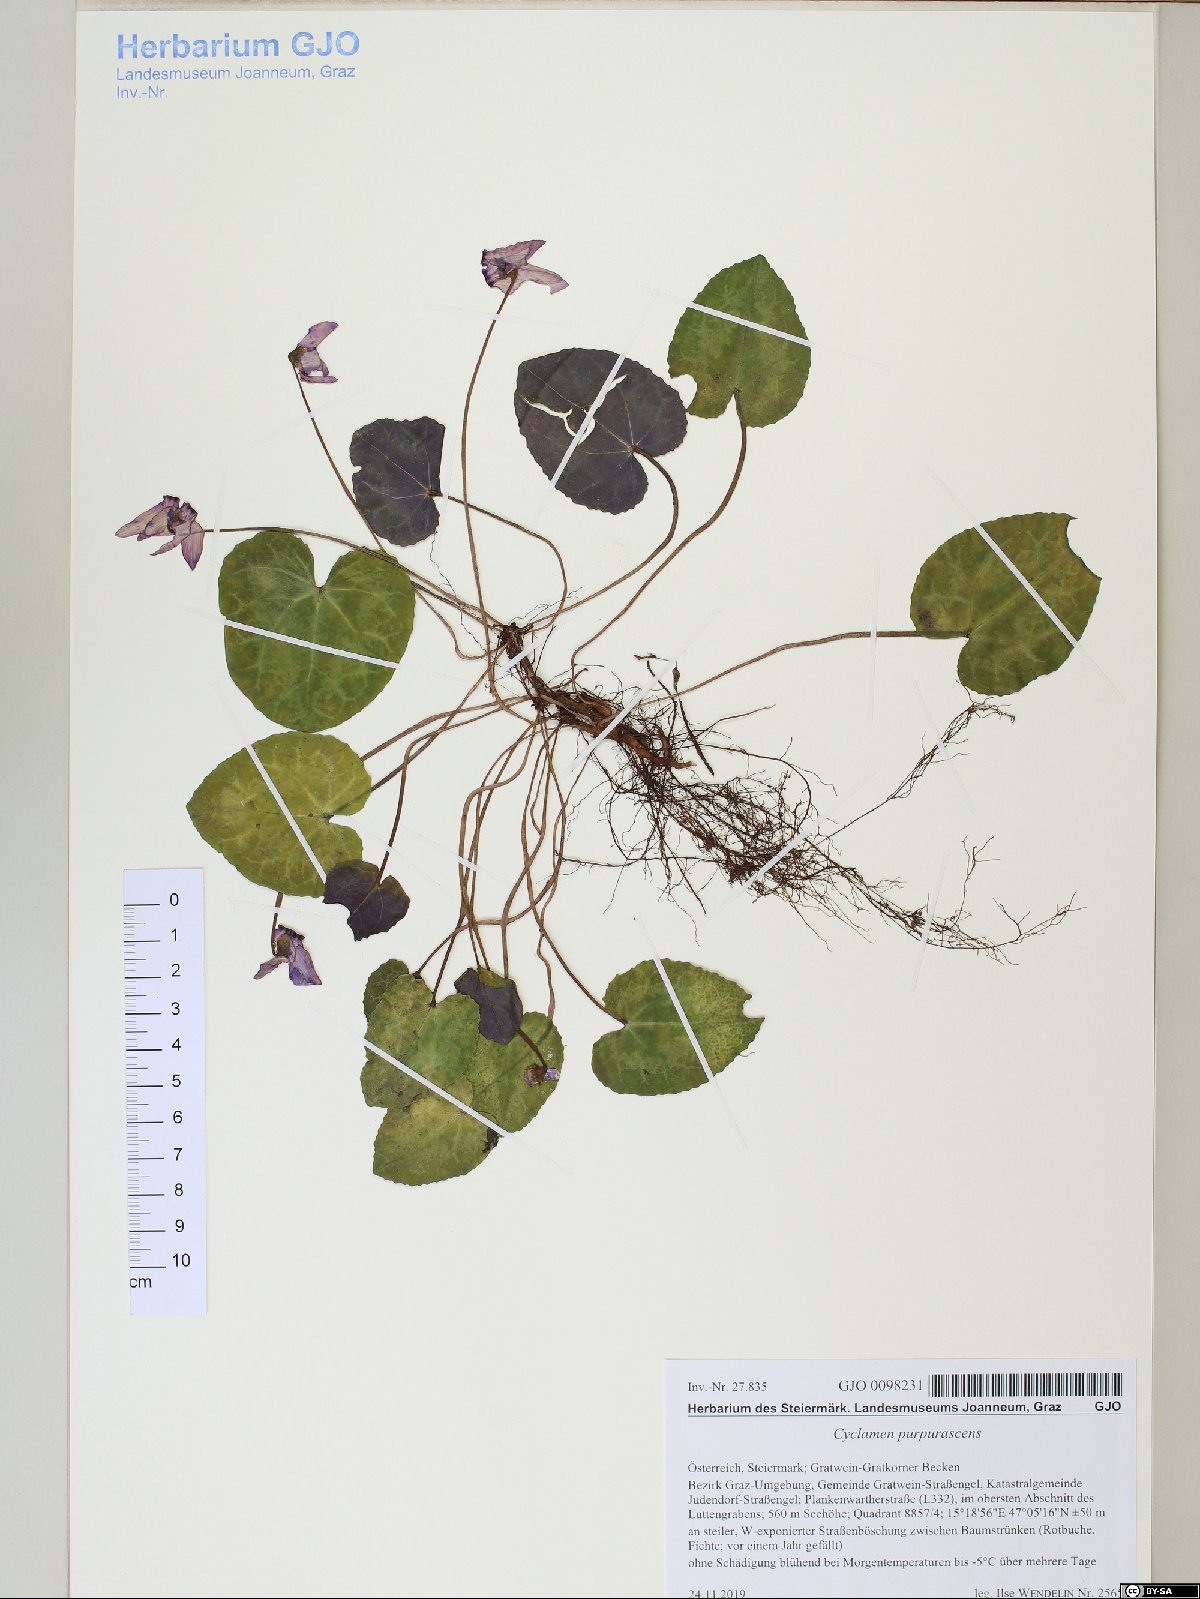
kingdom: Plantae
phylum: Tracheophyta
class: Magnoliopsida
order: Ericales
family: Primulaceae
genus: Cyclamen
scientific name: Cyclamen purpurascens
